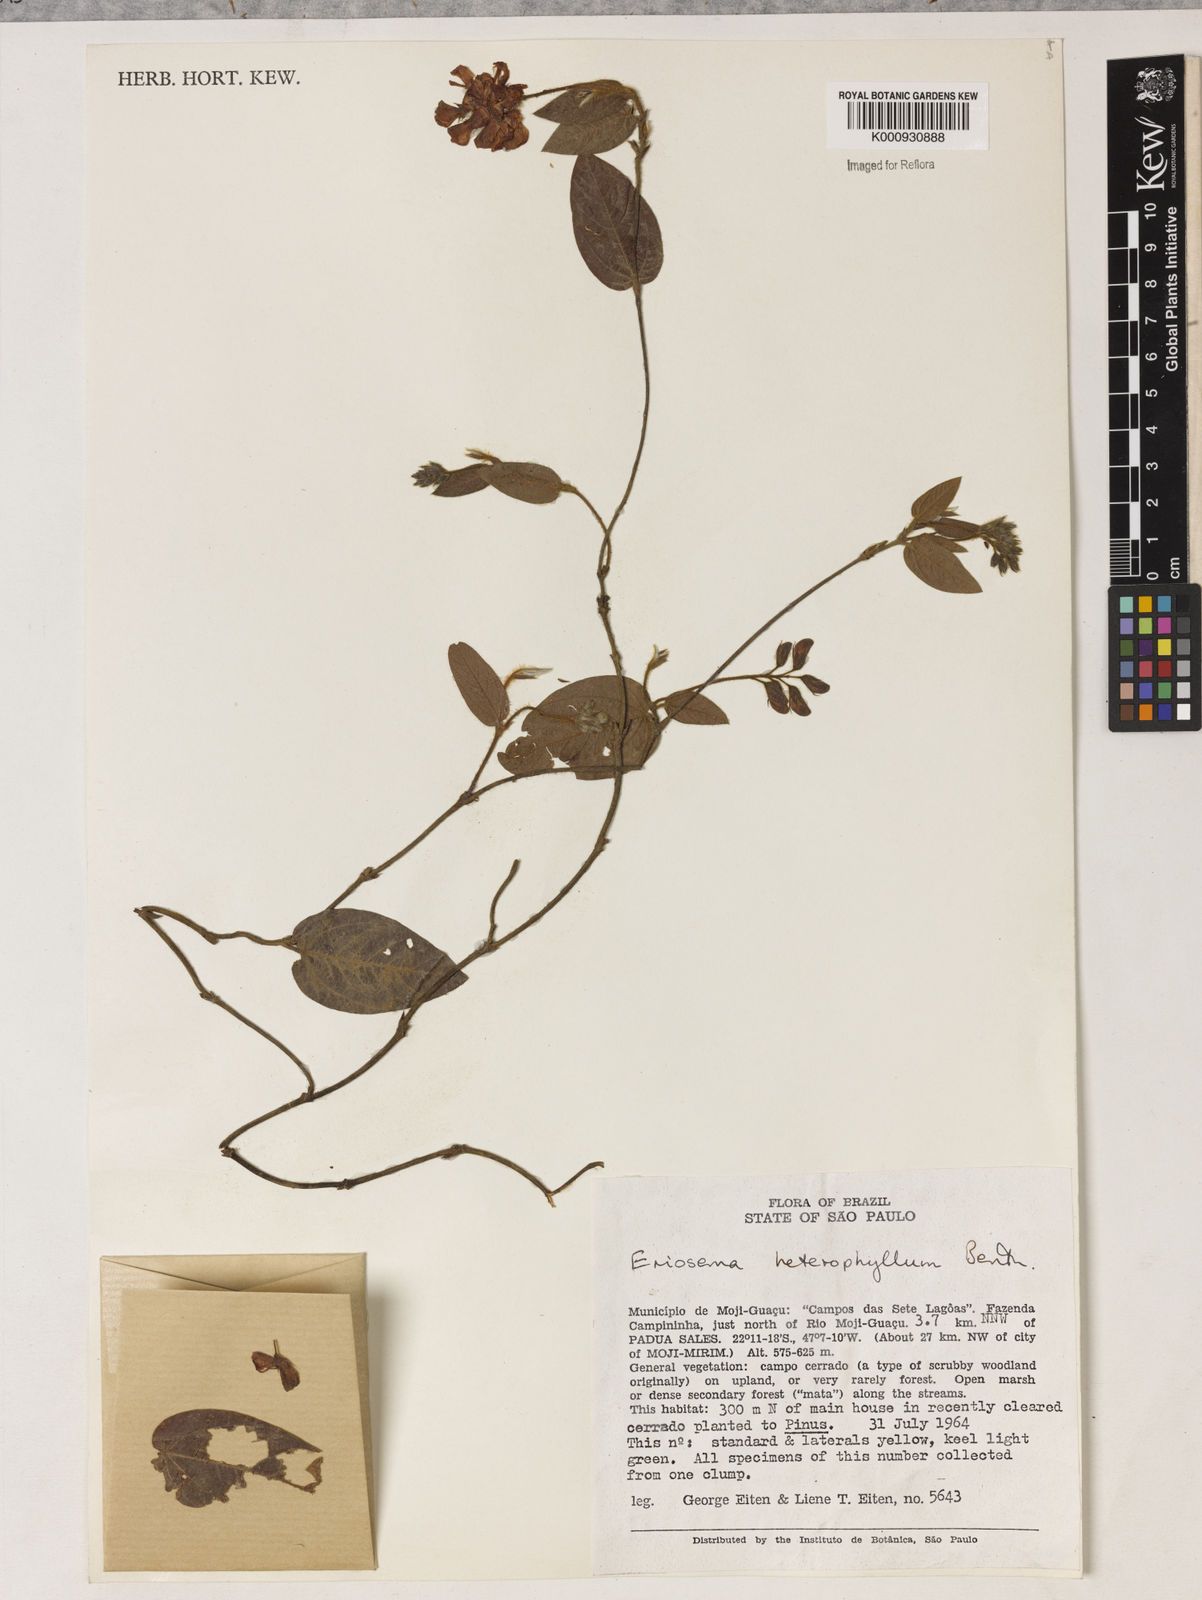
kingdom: Plantae
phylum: Tracheophyta
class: Magnoliopsida
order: Fabales
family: Fabaceae
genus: Eriosema
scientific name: Eriosema heterophyllum
